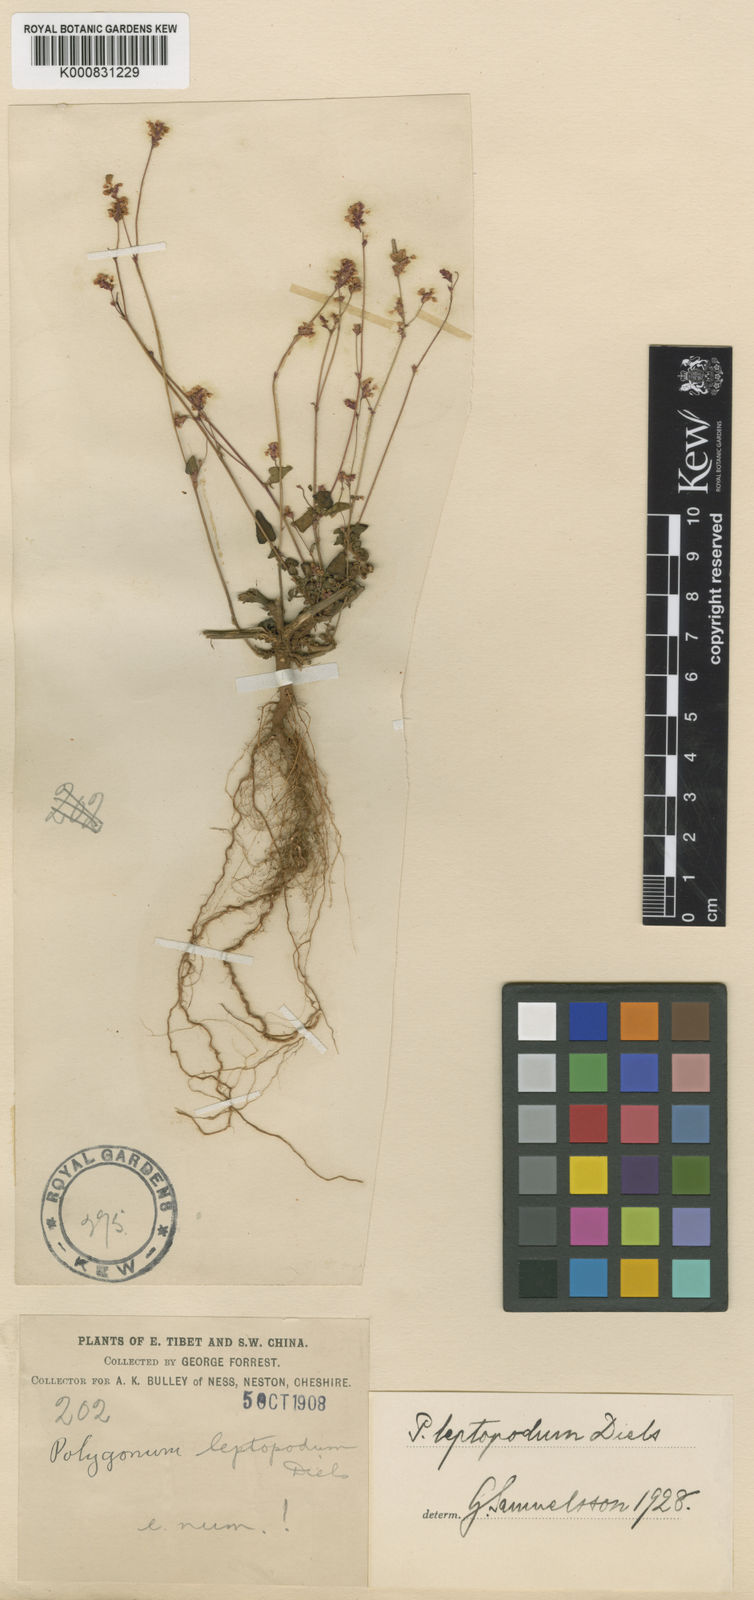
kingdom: Plantae
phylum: Tracheophyta
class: Magnoliopsida
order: Caryophyllales
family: Polygonaceae
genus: Fagopyrum
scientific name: Fagopyrum leptopodum
